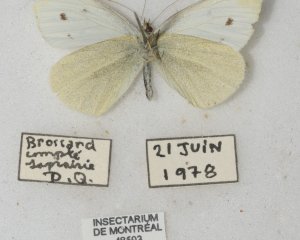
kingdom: Animalia
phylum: Arthropoda
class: Insecta
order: Lepidoptera
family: Pieridae
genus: Pieris
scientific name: Pieris rapae
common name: Cabbage White
